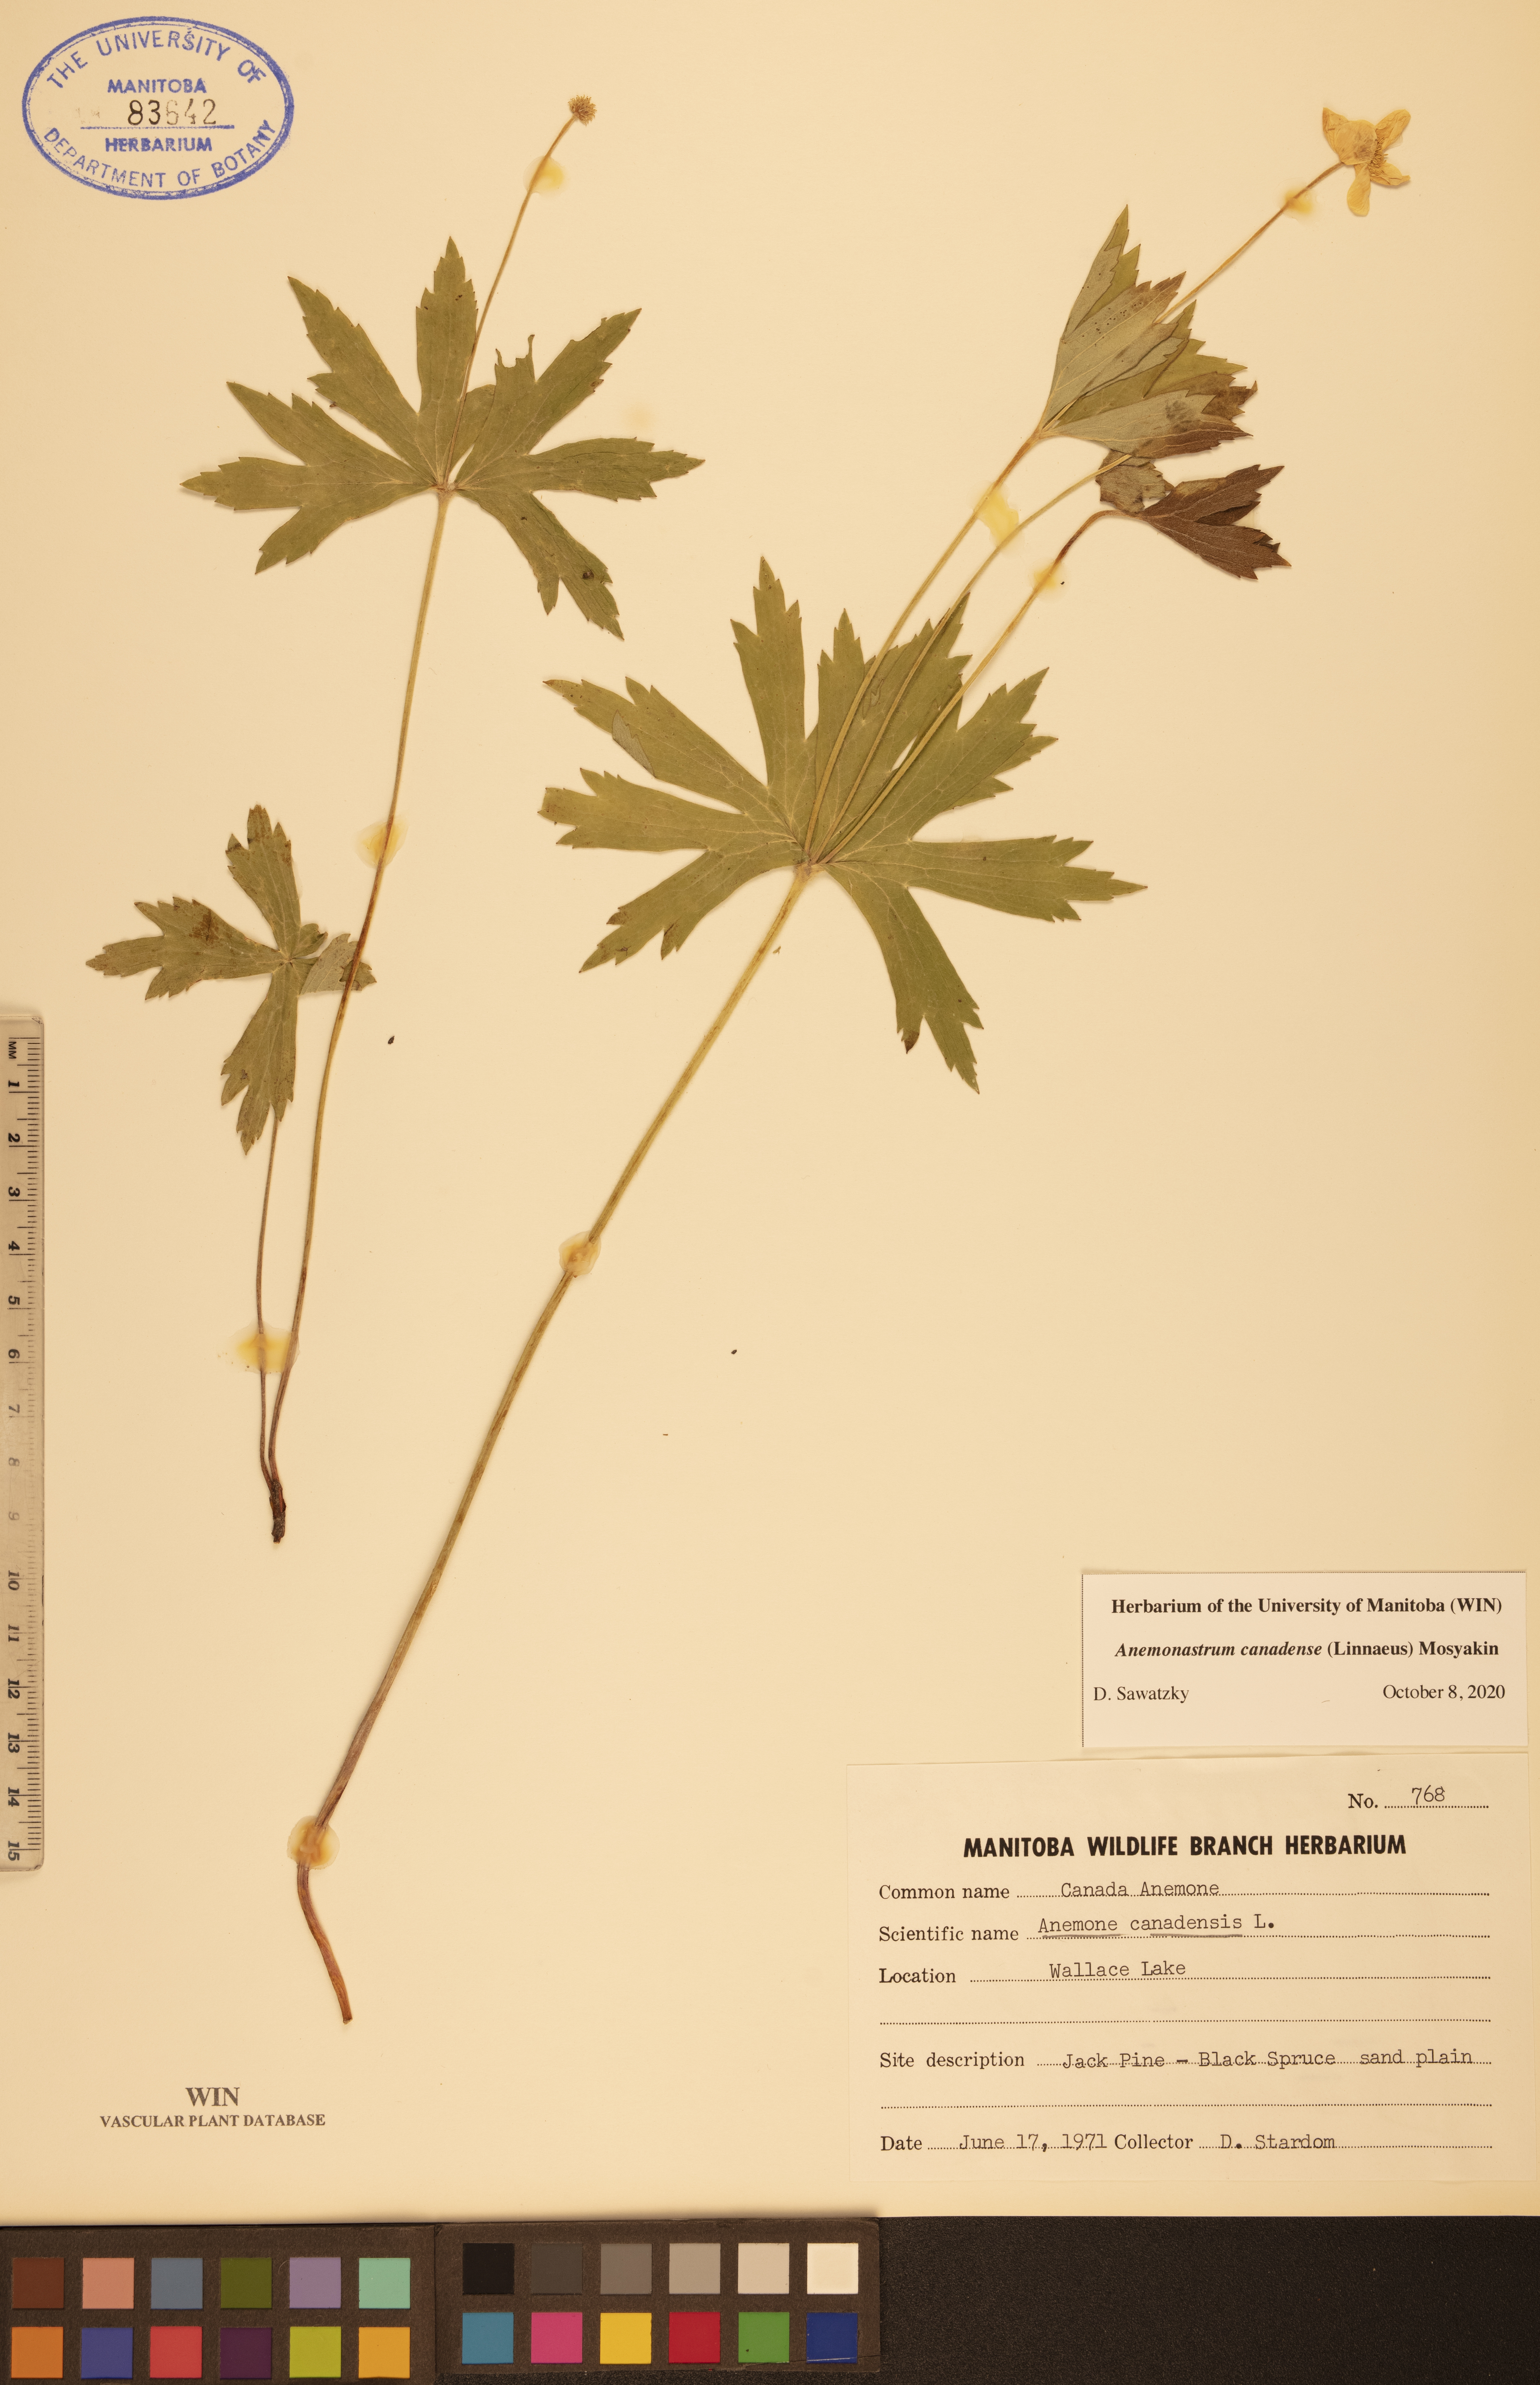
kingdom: Plantae
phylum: Tracheophyta
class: Magnoliopsida
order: Ranunculales
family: Ranunculaceae
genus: Anemonastrum
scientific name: Anemonastrum canadense
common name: Canada anemone
